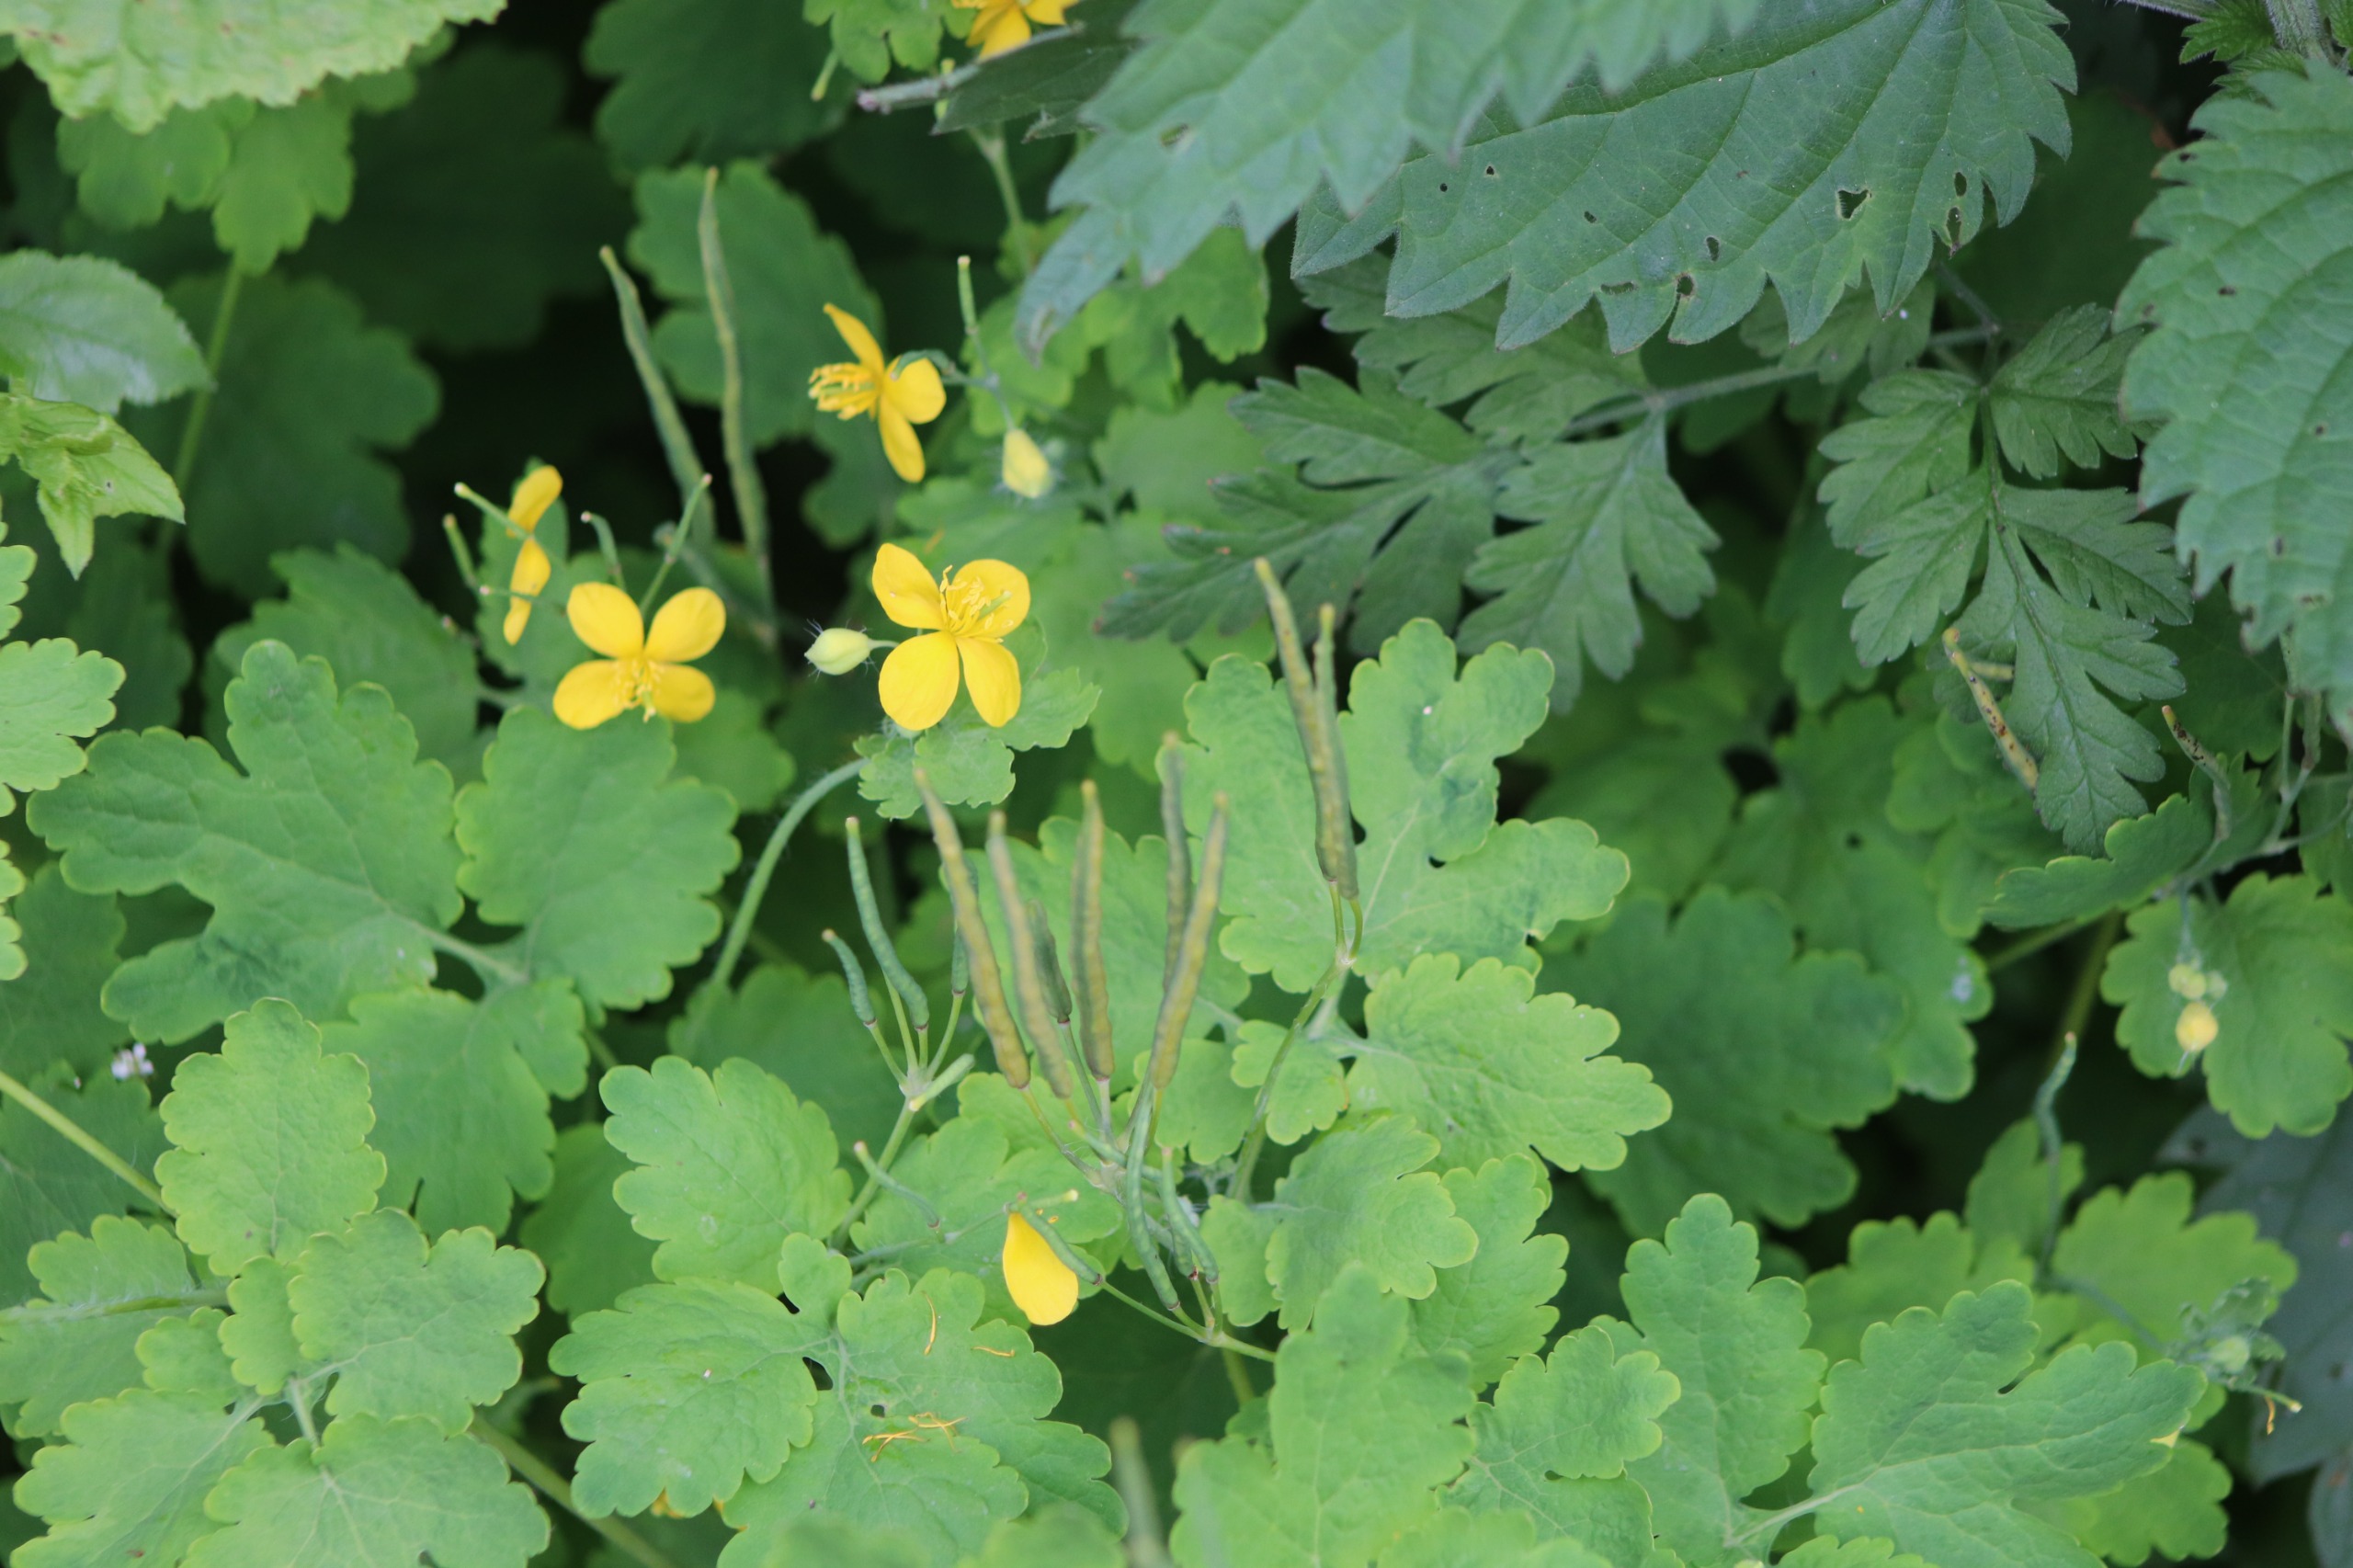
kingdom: Plantae
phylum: Tracheophyta
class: Magnoliopsida
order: Ranunculales
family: Papaveraceae
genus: Chelidonium
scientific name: Chelidonium majus
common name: Svaleurt
